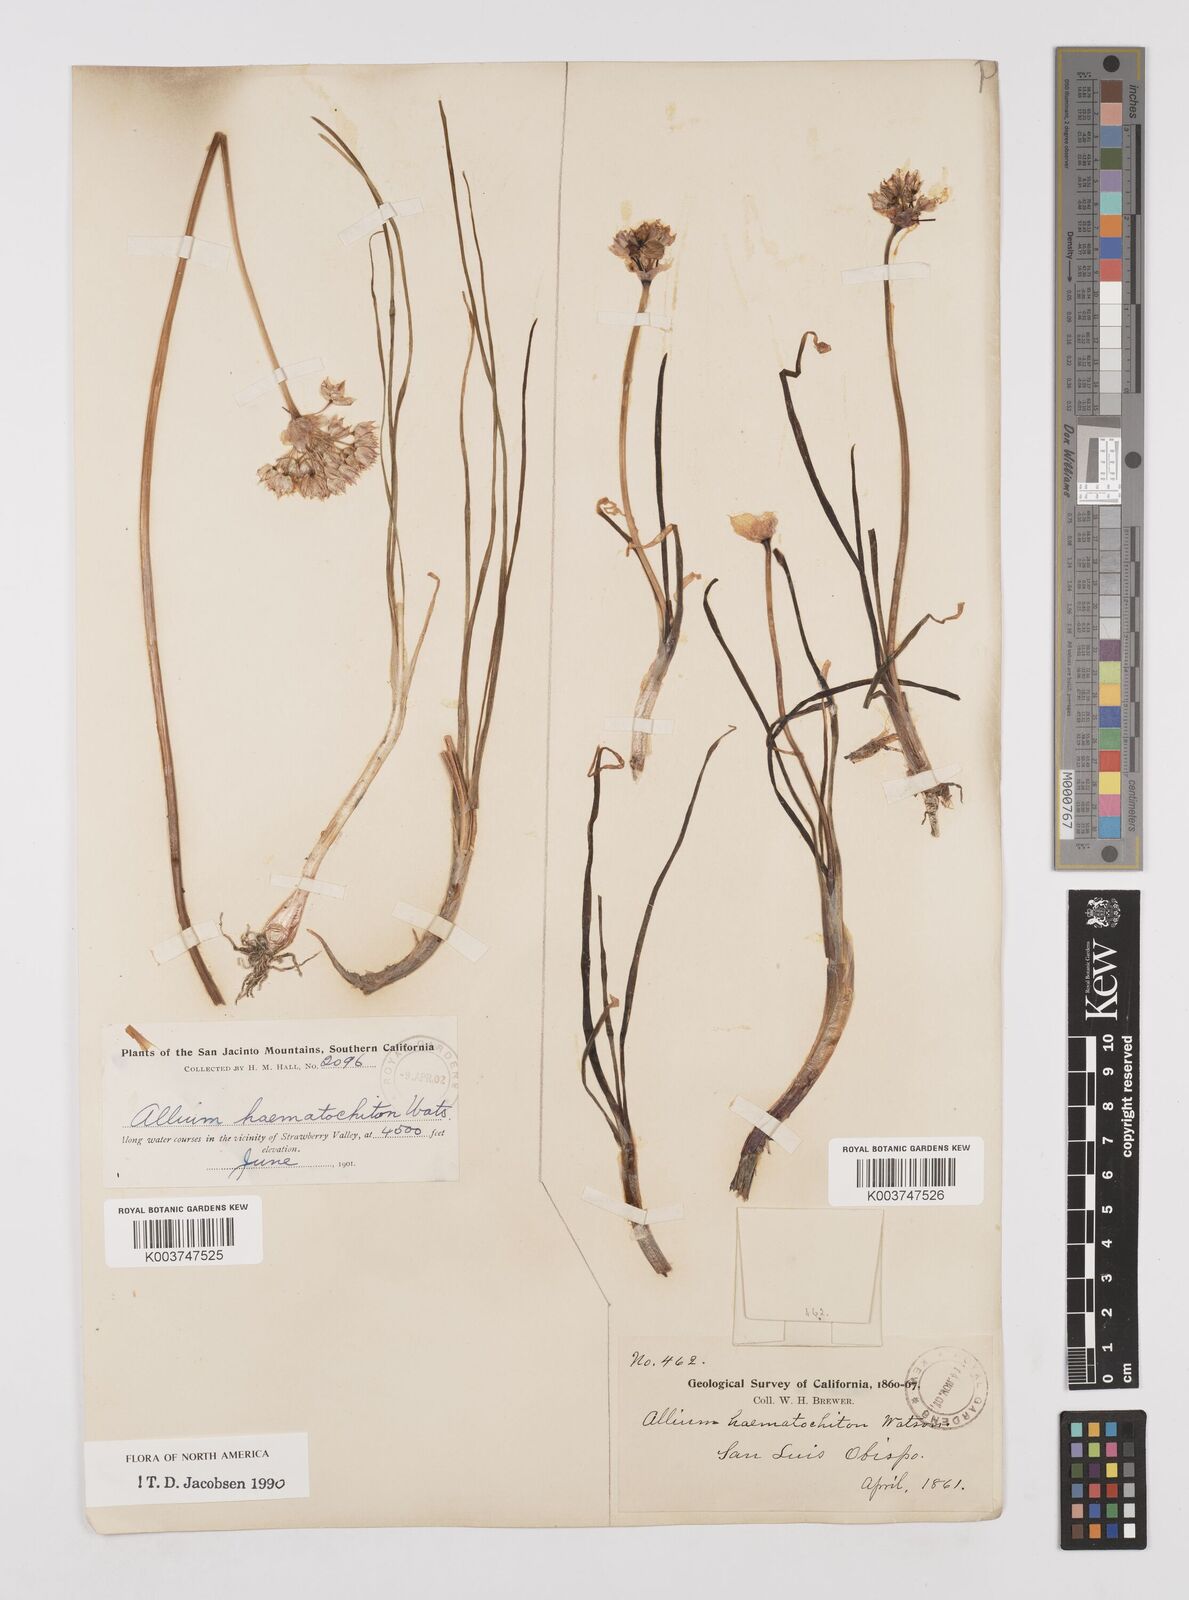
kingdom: Plantae
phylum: Tracheophyta
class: Liliopsida
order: Asparagales
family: Amaryllidaceae
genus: Allium
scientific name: Allium haematochiton
